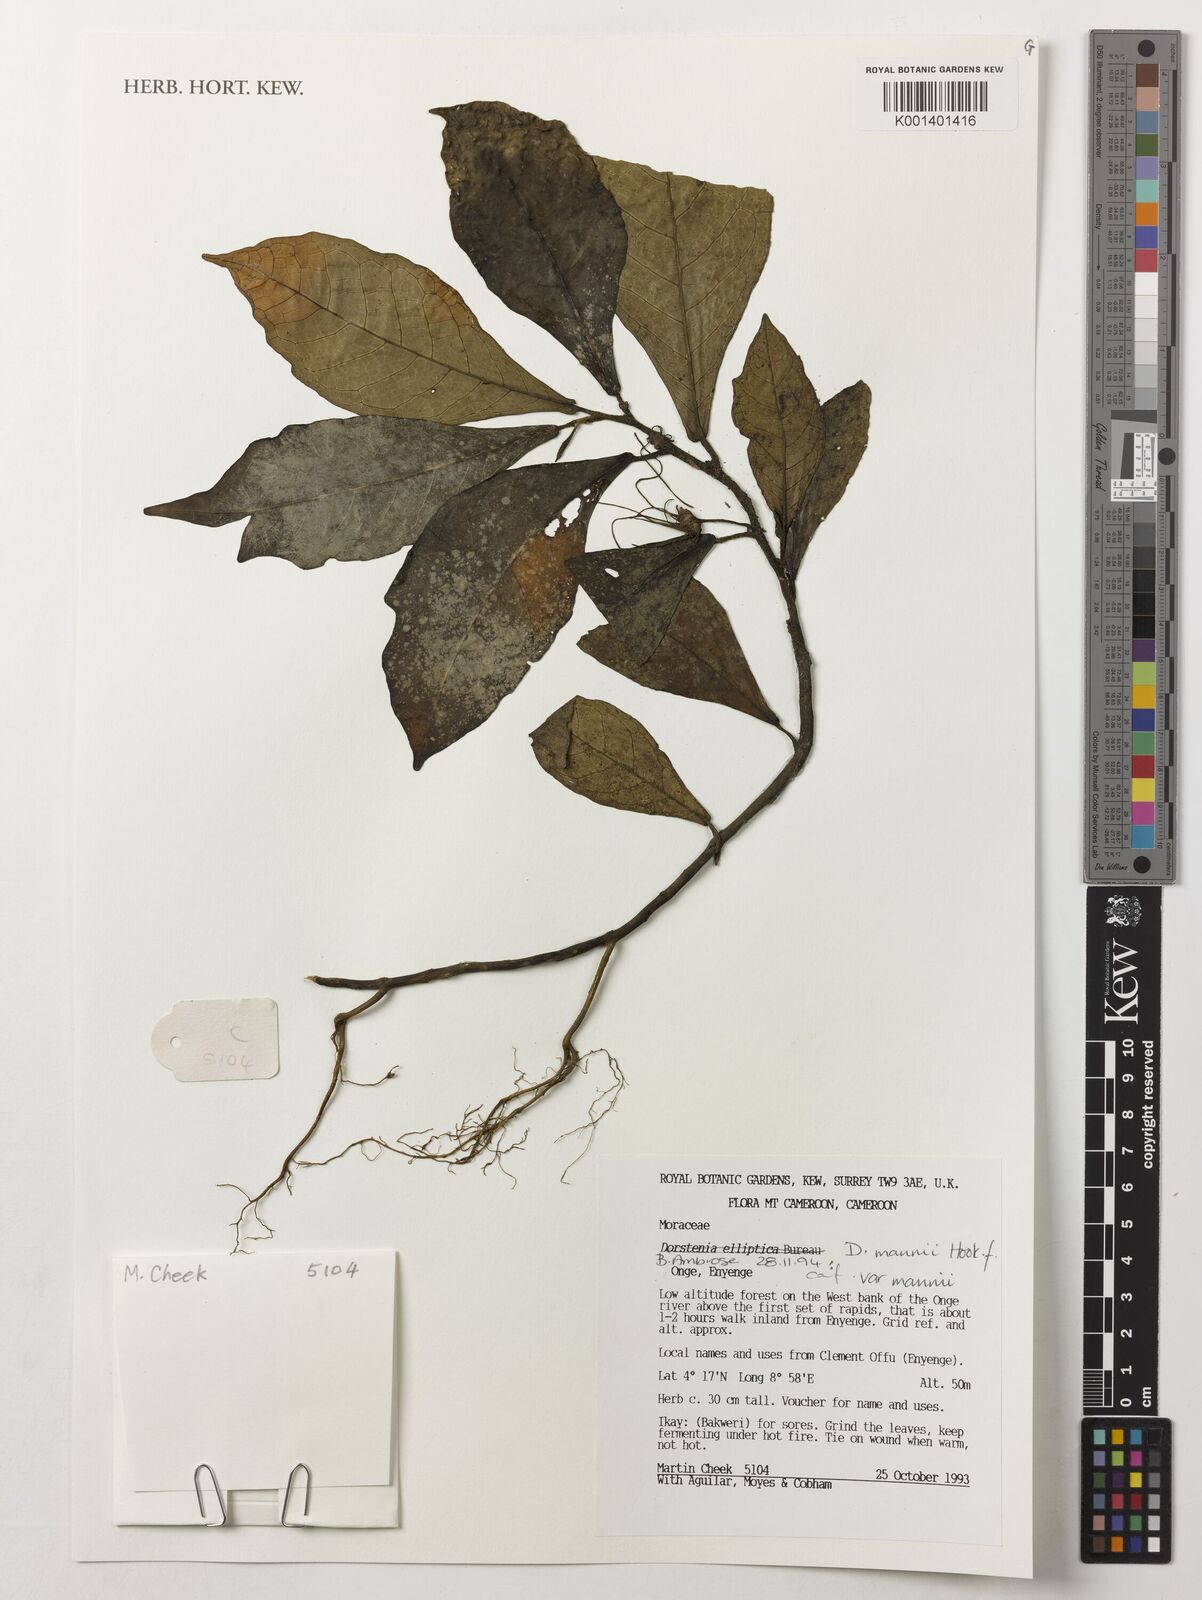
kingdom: Plantae
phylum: Tracheophyta
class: Magnoliopsida
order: Rosales
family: Moraceae
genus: Dorstenia
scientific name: Dorstenia mannii
